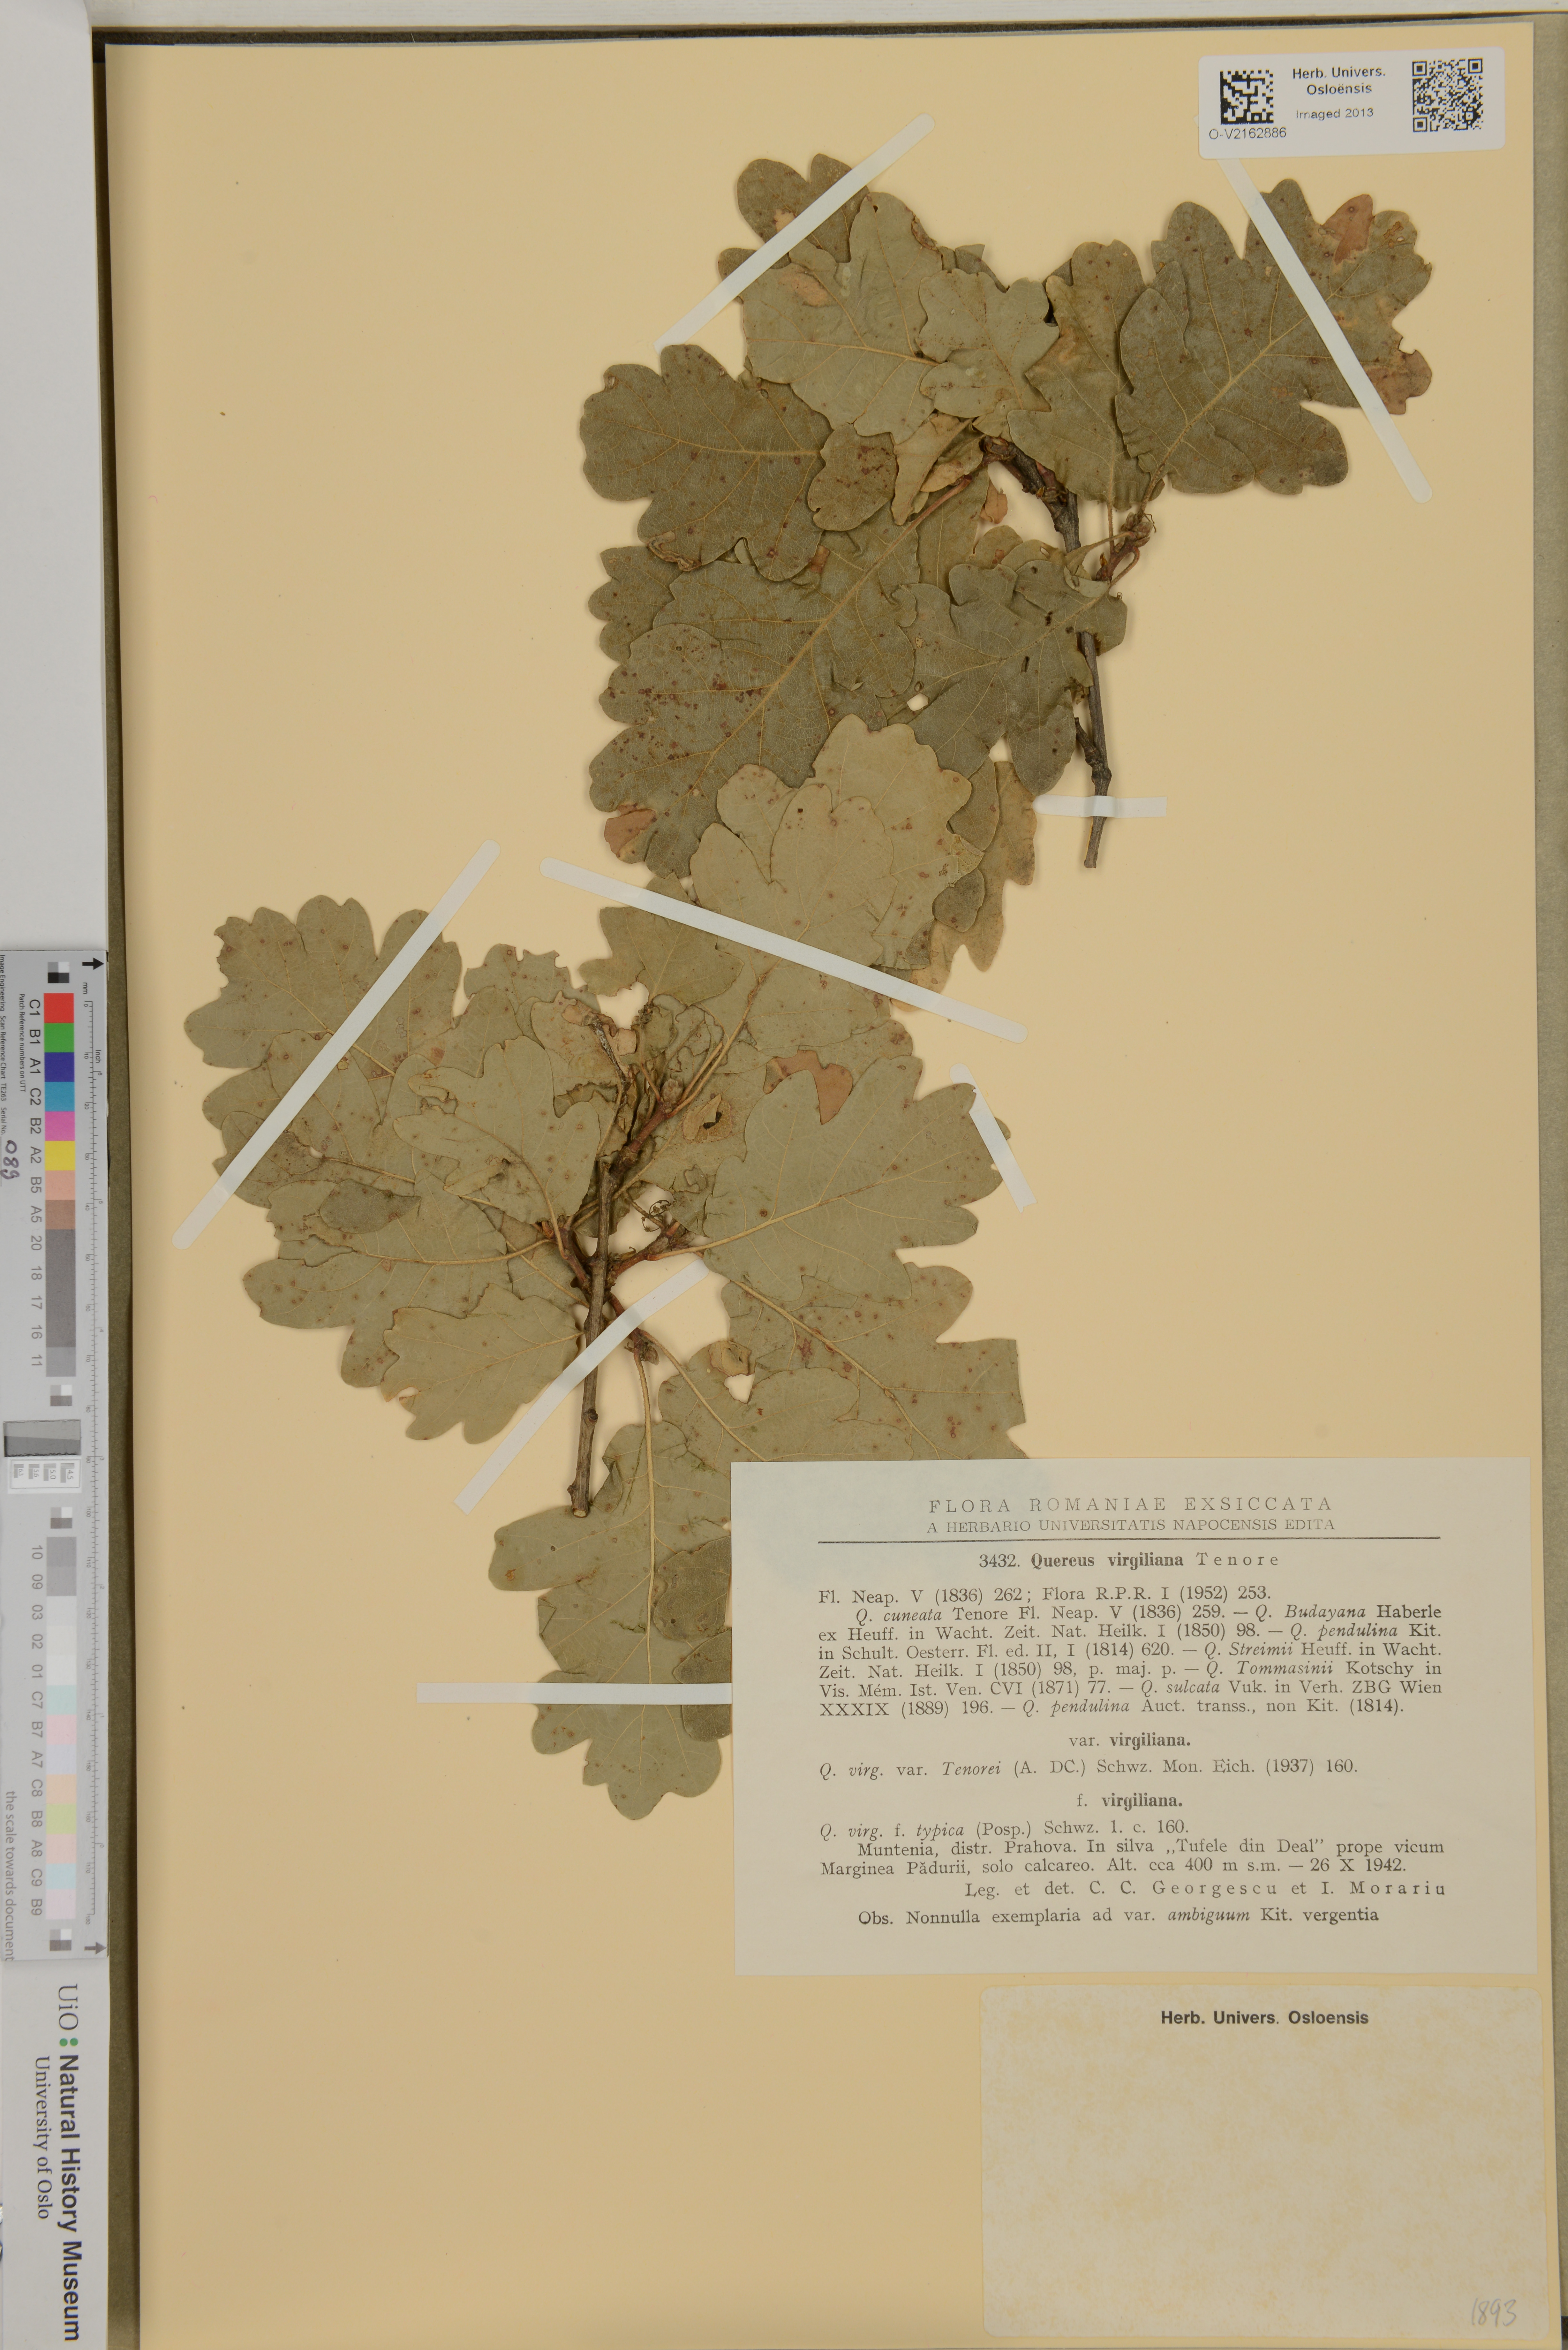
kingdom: Plantae
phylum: Tracheophyta
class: Magnoliopsida
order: Fagales
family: Fagaceae
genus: Quercus
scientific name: Quercus virginiana
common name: Southern live oak
